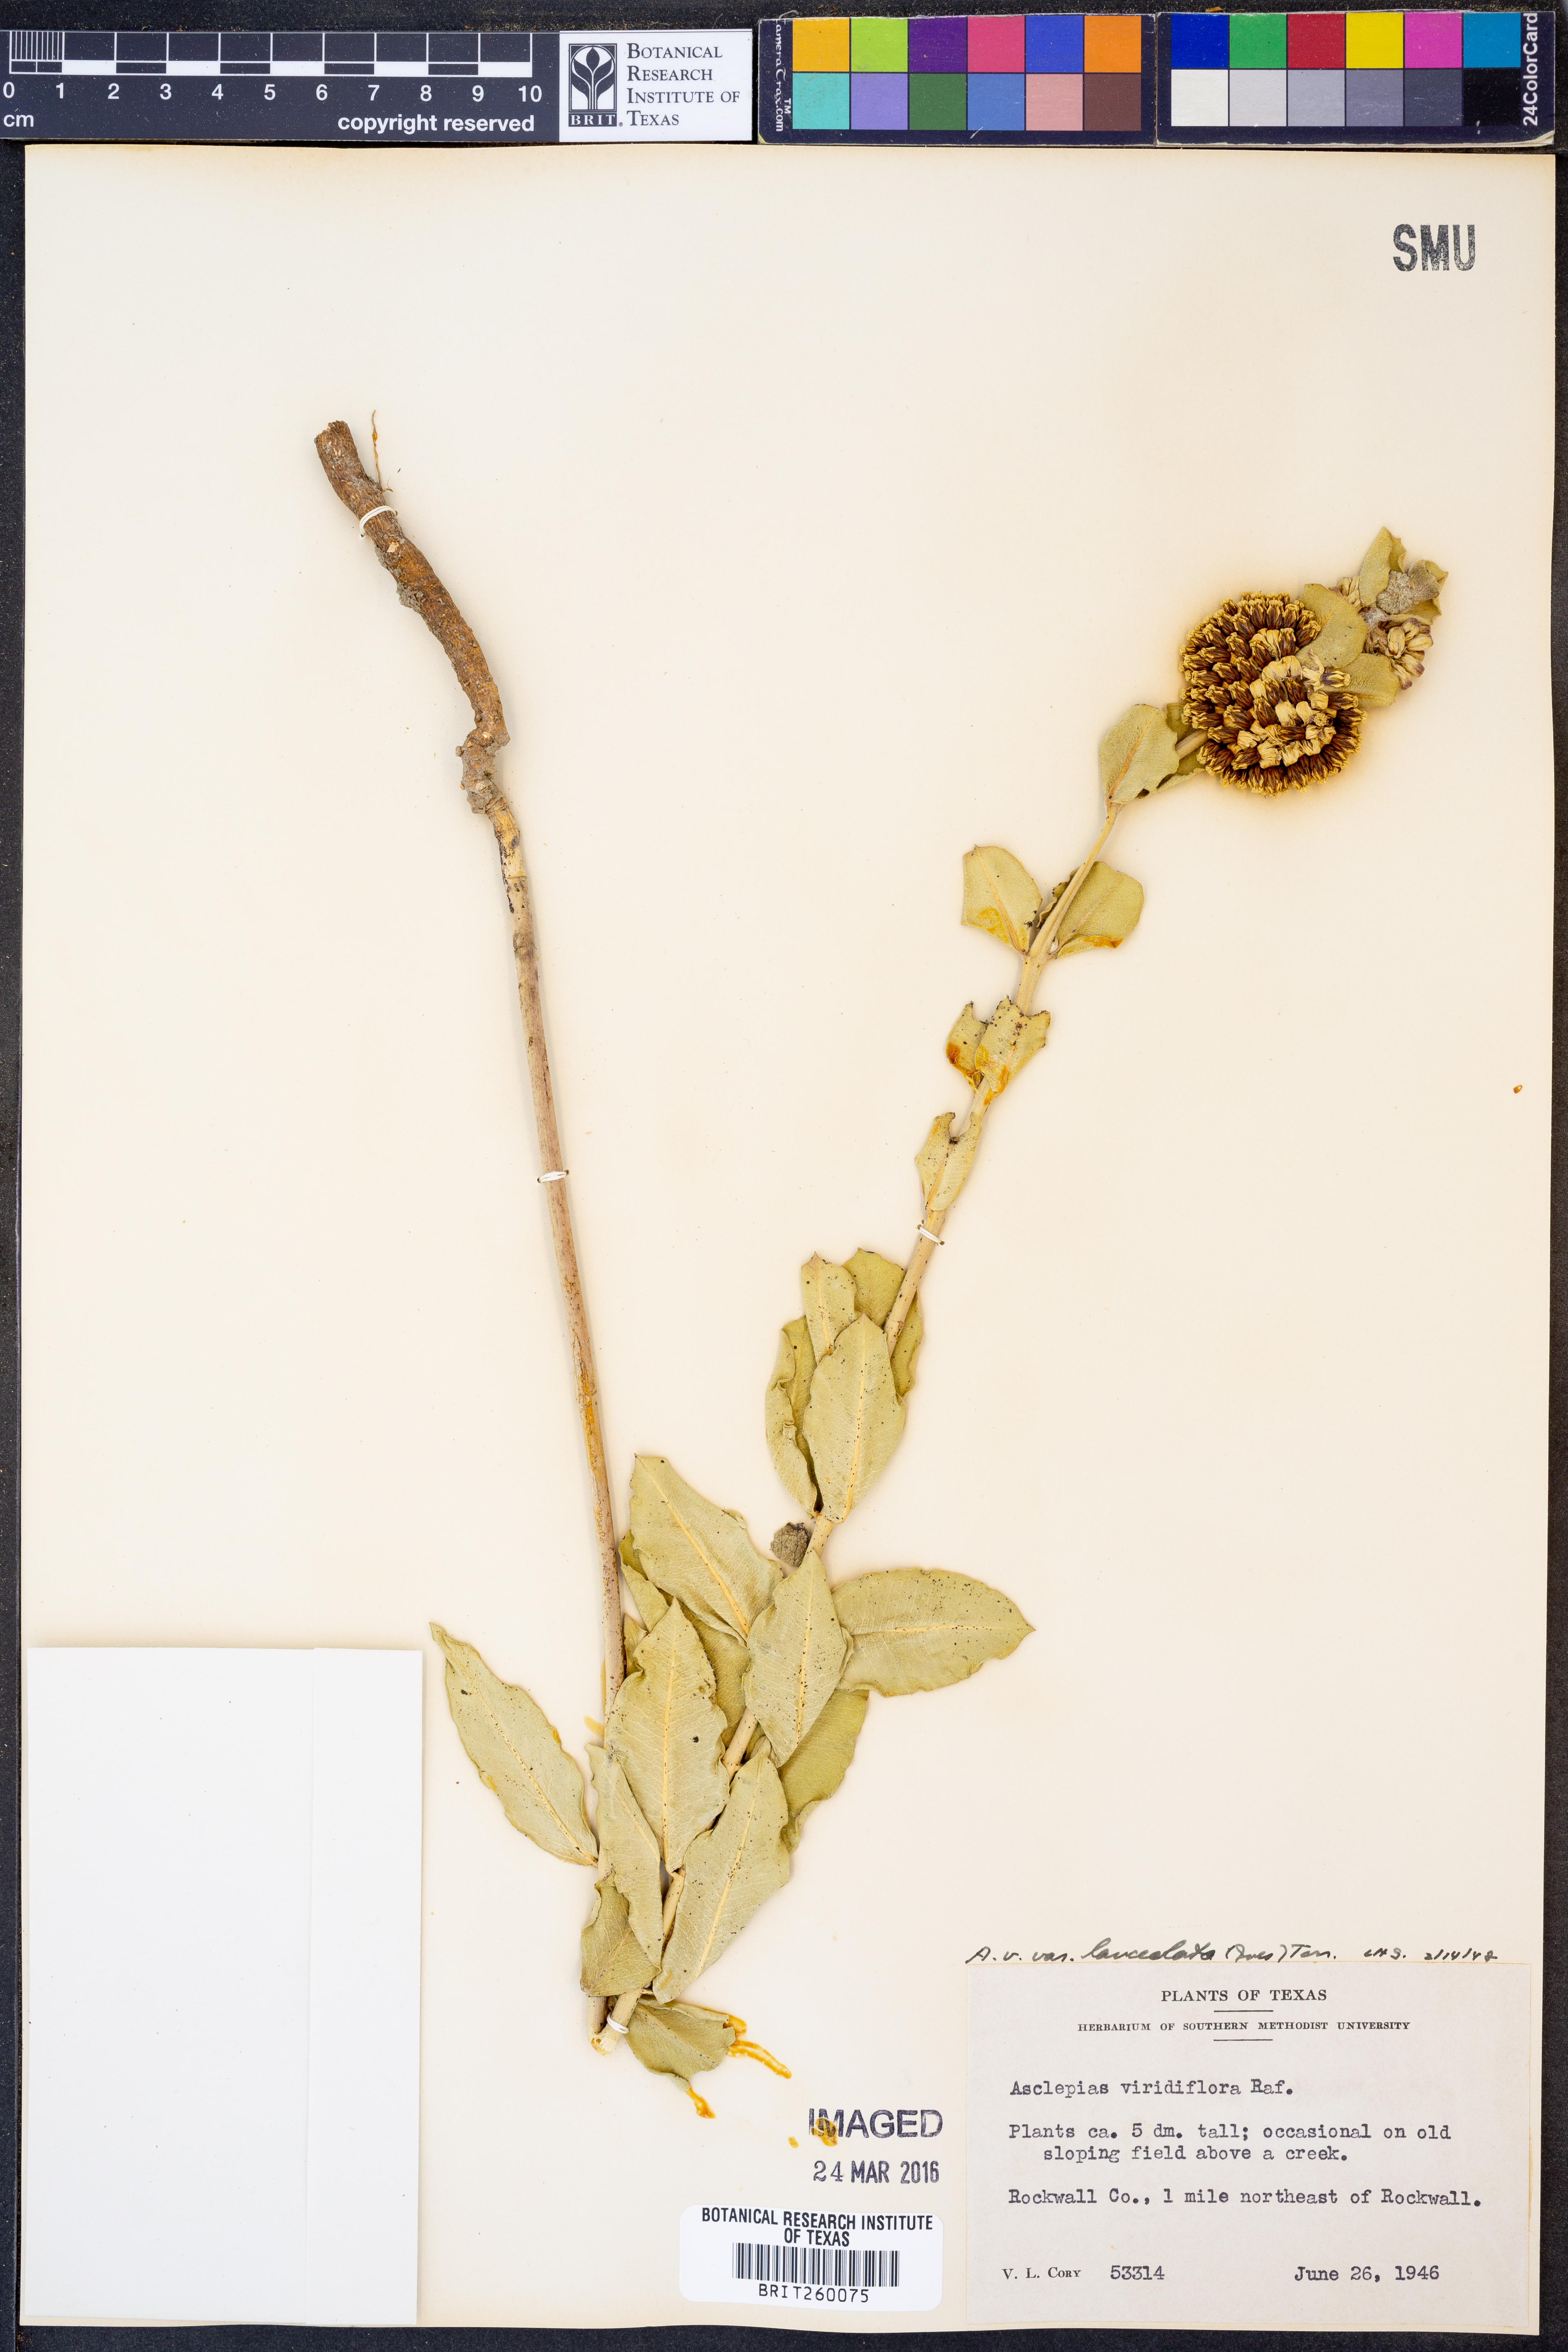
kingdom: Plantae
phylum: Tracheophyta
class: Magnoliopsida
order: Gentianales
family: Apocynaceae
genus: Asclepias
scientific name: Asclepias viridiflora
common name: Green comet milkweed
